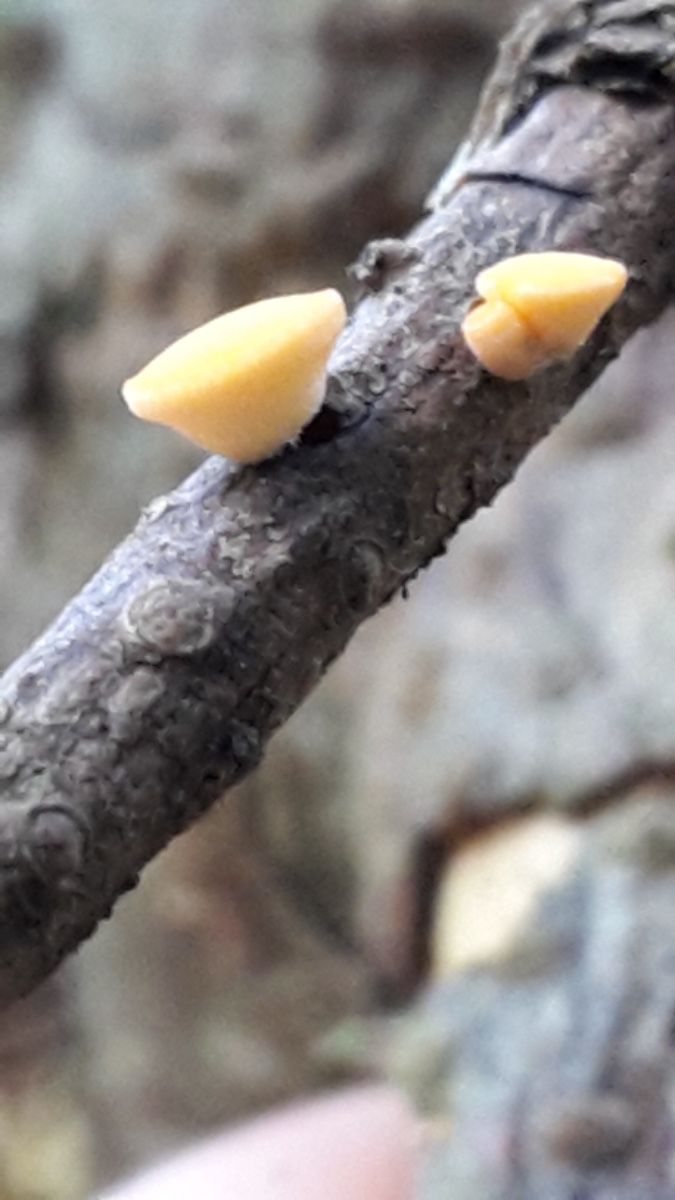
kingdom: Fungi
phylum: Ascomycota
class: Pezizomycetes
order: Pezizales
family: Sarcoscyphaceae
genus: Pithya
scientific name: Pithya vulgaris
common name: stor dukatbæger
